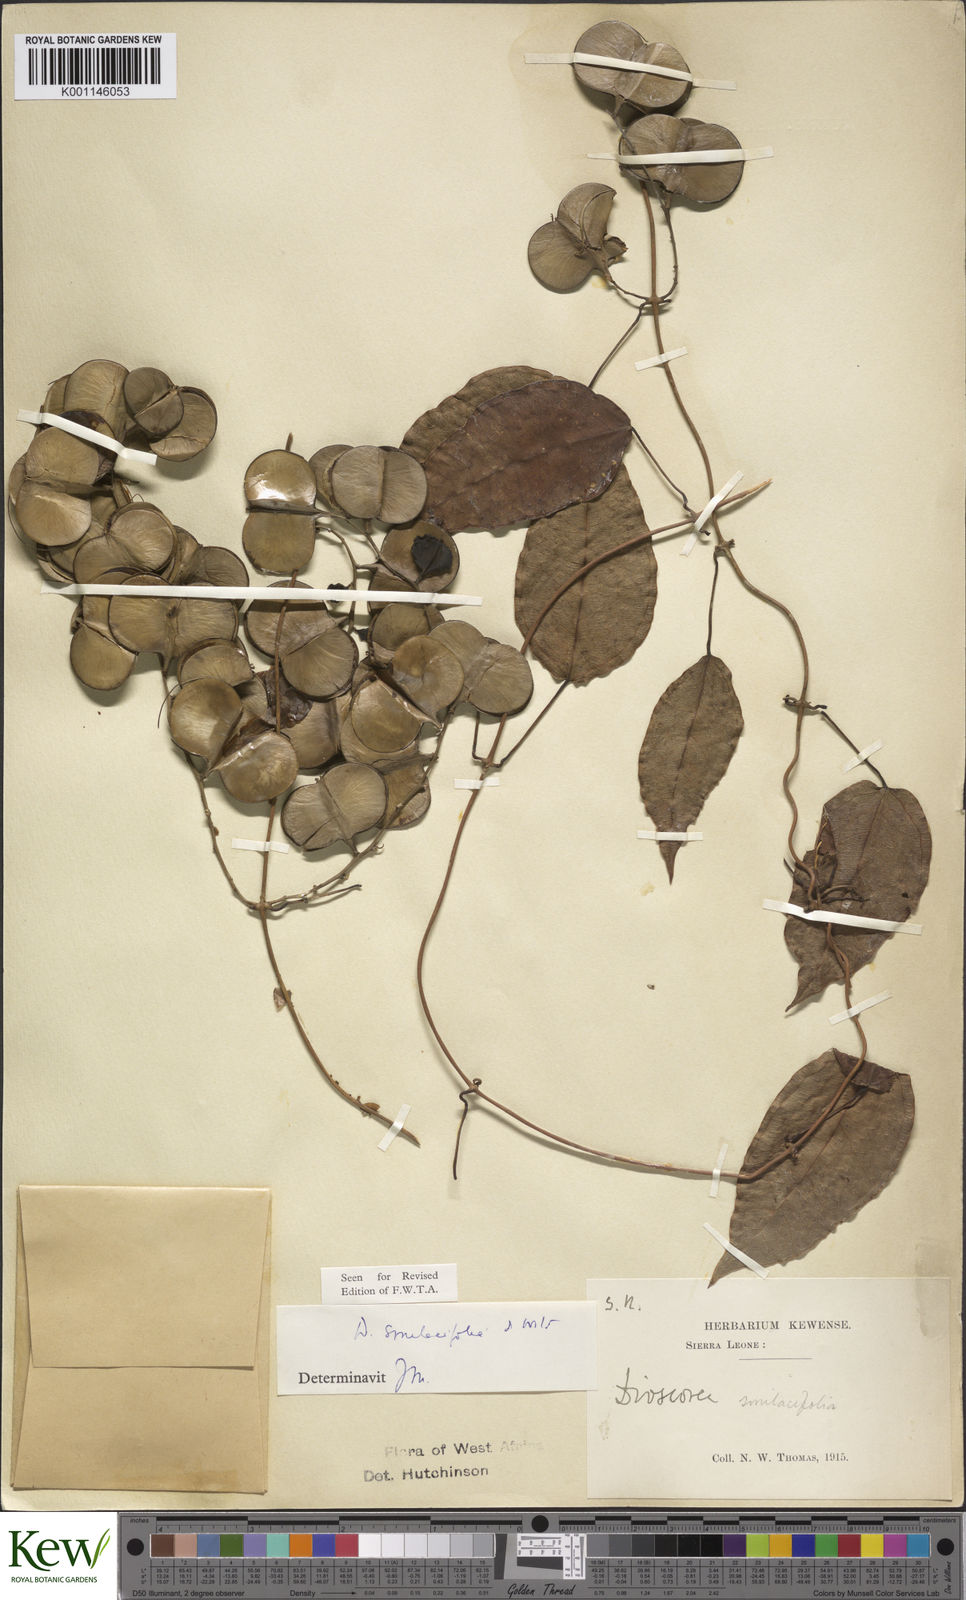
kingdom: Plantae
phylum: Tracheophyta
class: Liliopsida
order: Dioscoreales
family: Dioscoreaceae
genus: Dioscorea
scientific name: Dioscorea smilacifolia
